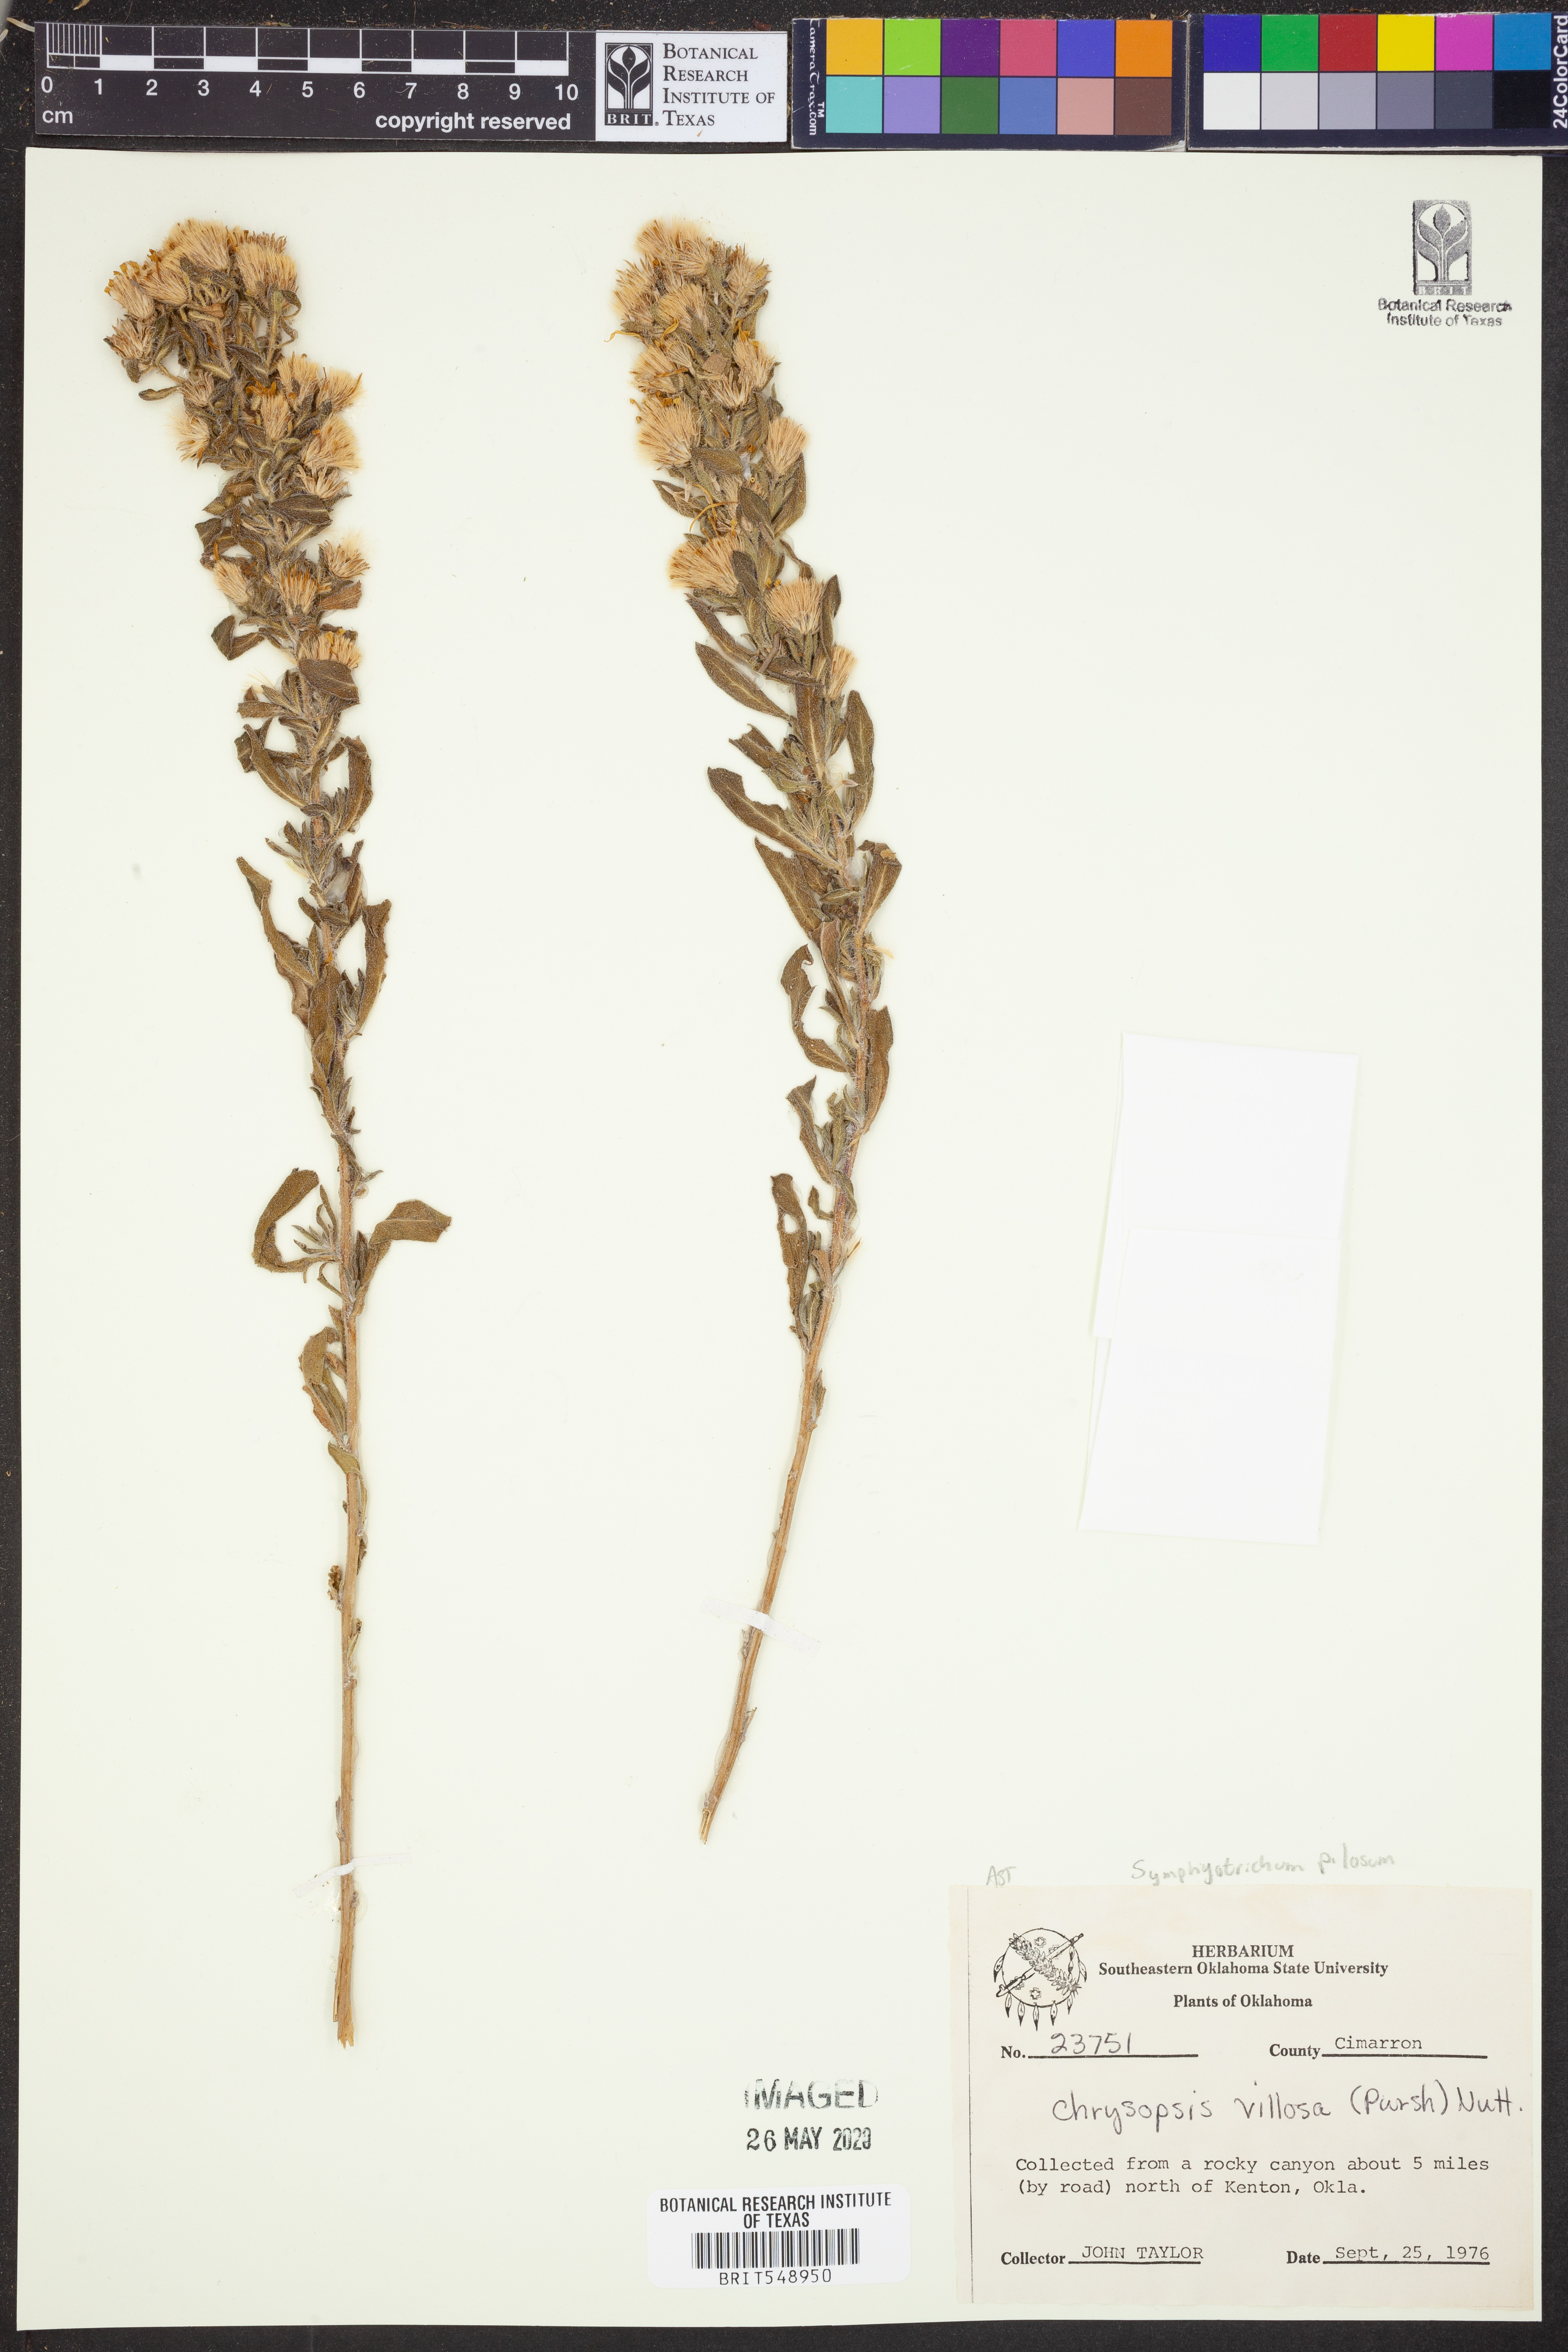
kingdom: Plantae
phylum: Tracheophyta
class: Magnoliopsida
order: Asterales
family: Asteraceae
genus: Symphyotrichum
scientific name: Symphyotrichum pilosum
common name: Awl aster
